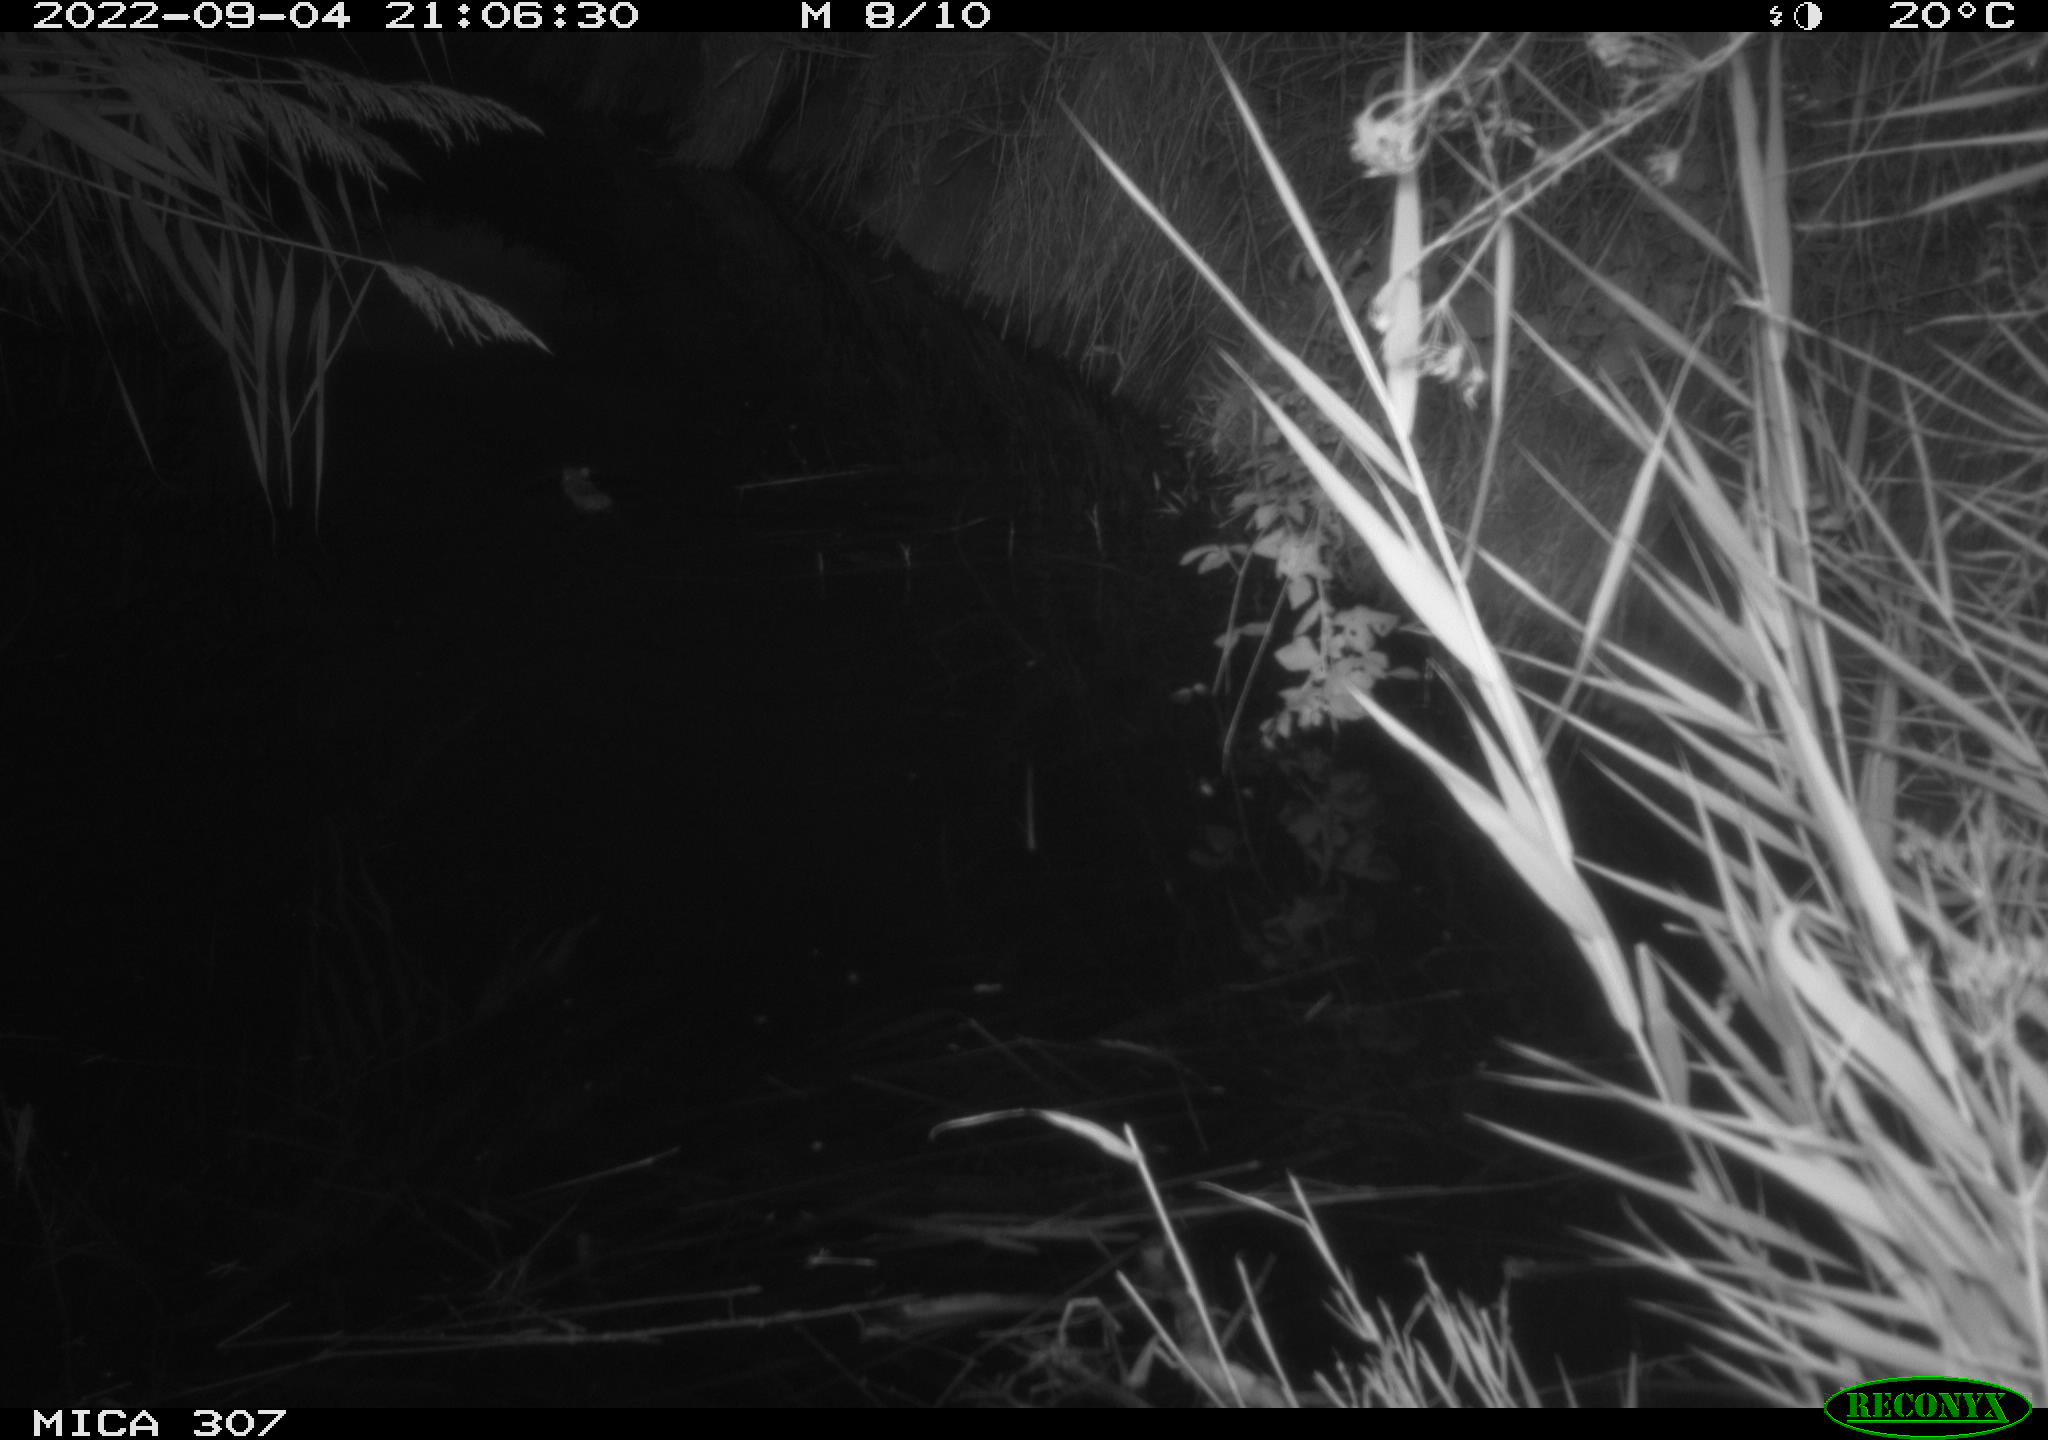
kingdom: Animalia
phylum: Chordata
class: Mammalia
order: Rodentia
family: Muridae
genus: Rattus
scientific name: Rattus norvegicus
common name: Brown rat
